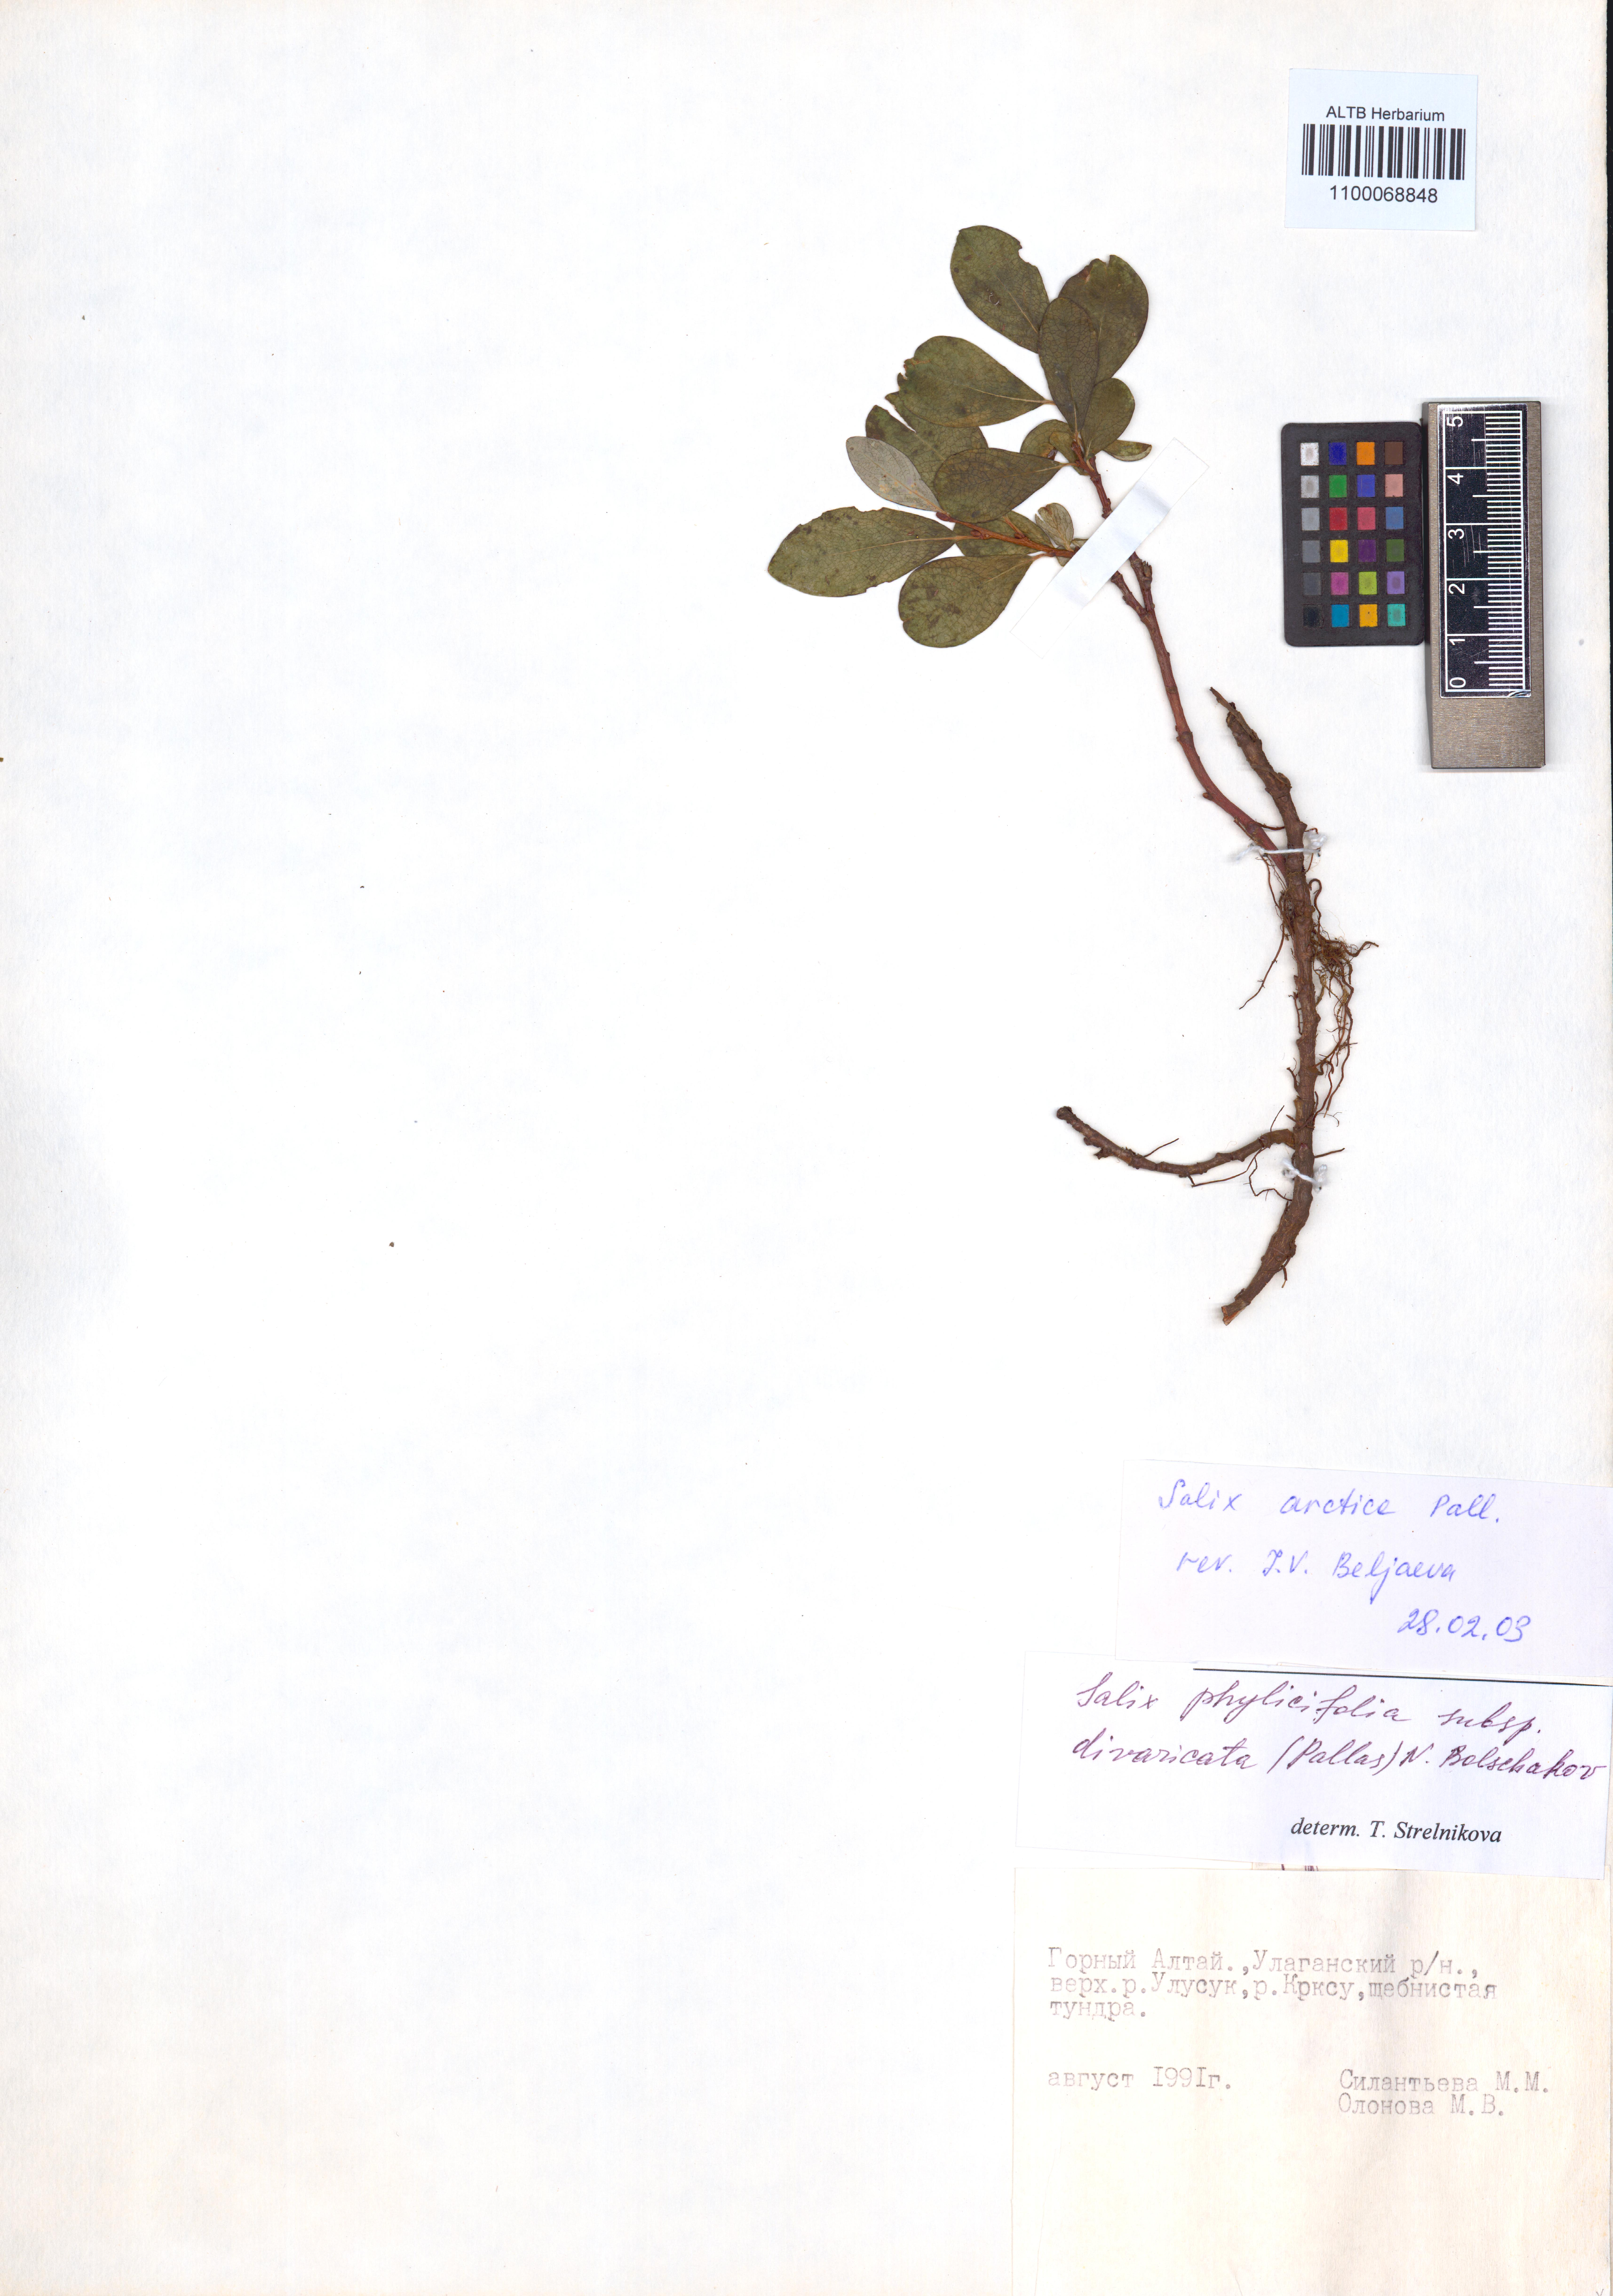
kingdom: Plantae
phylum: Tracheophyta
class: Magnoliopsida
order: Malpighiales
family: Salicaceae
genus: Salix
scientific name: Salix arctica
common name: Arctic willow
